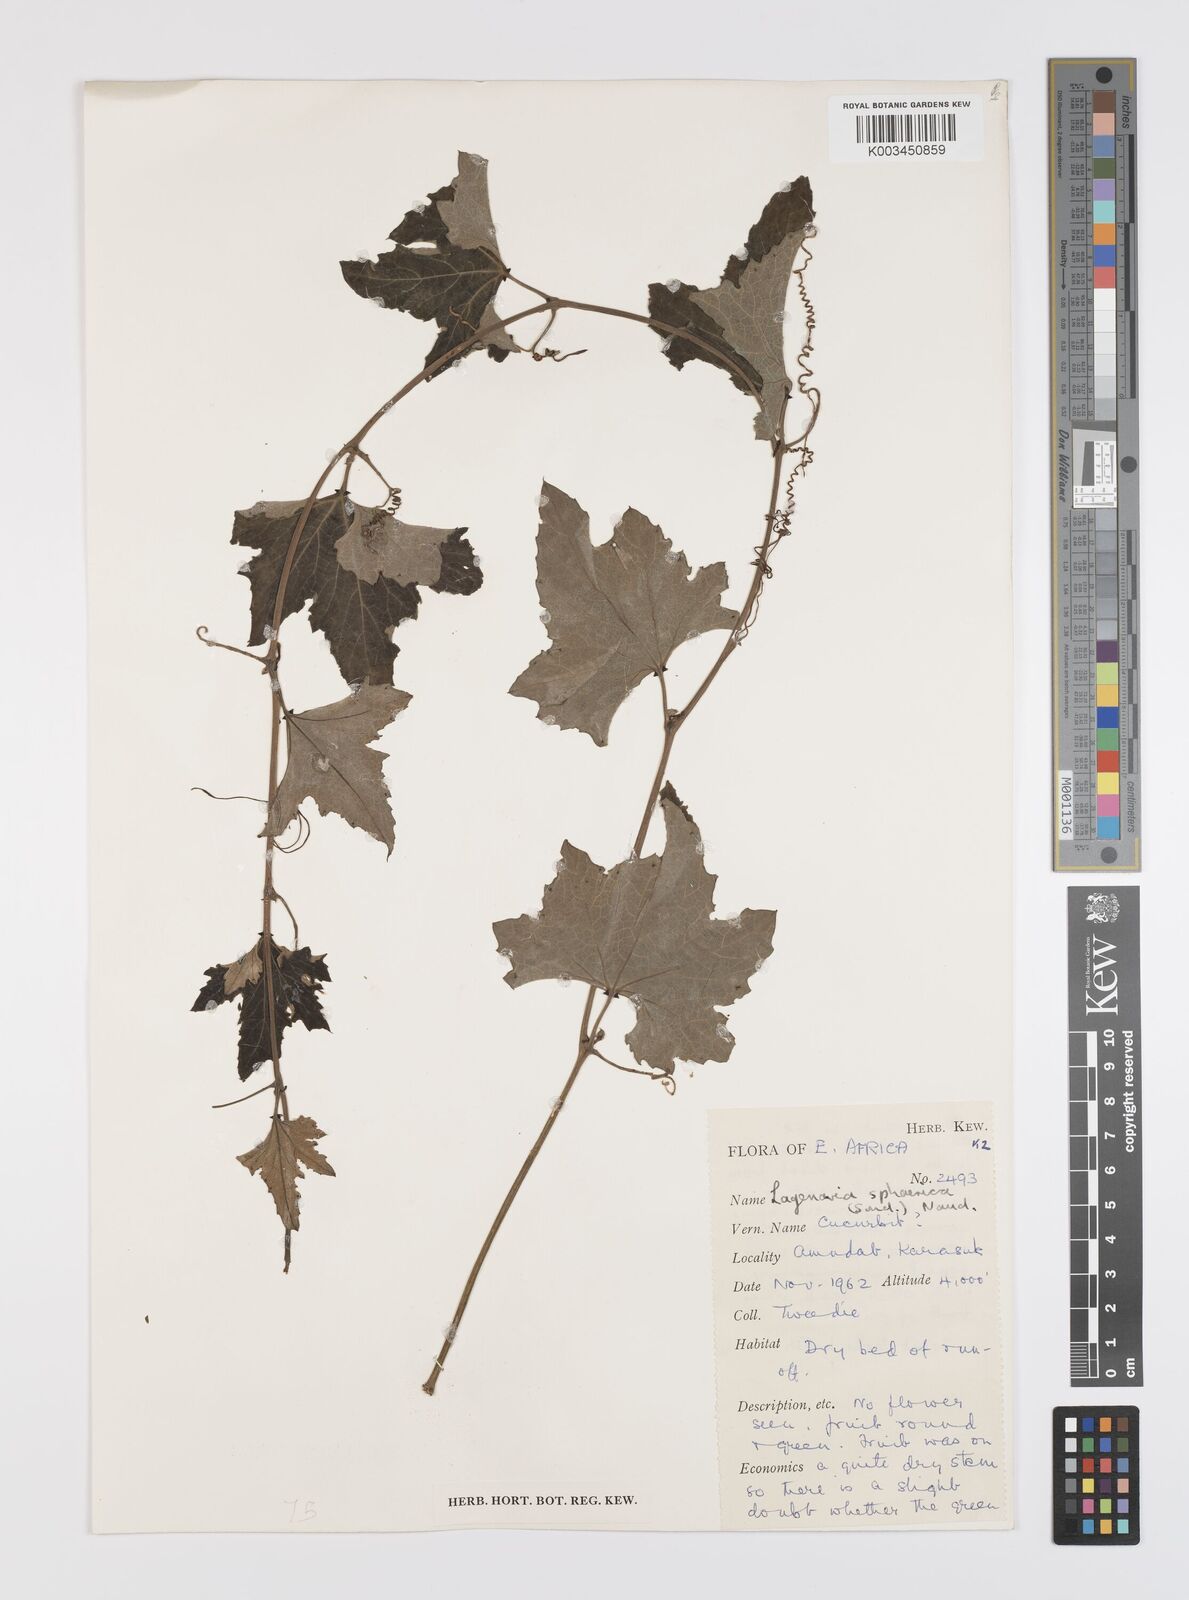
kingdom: Plantae
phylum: Tracheophyta
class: Magnoliopsida
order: Cucurbitales
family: Cucurbitaceae
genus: Lagenaria
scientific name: Lagenaria sphaerica
